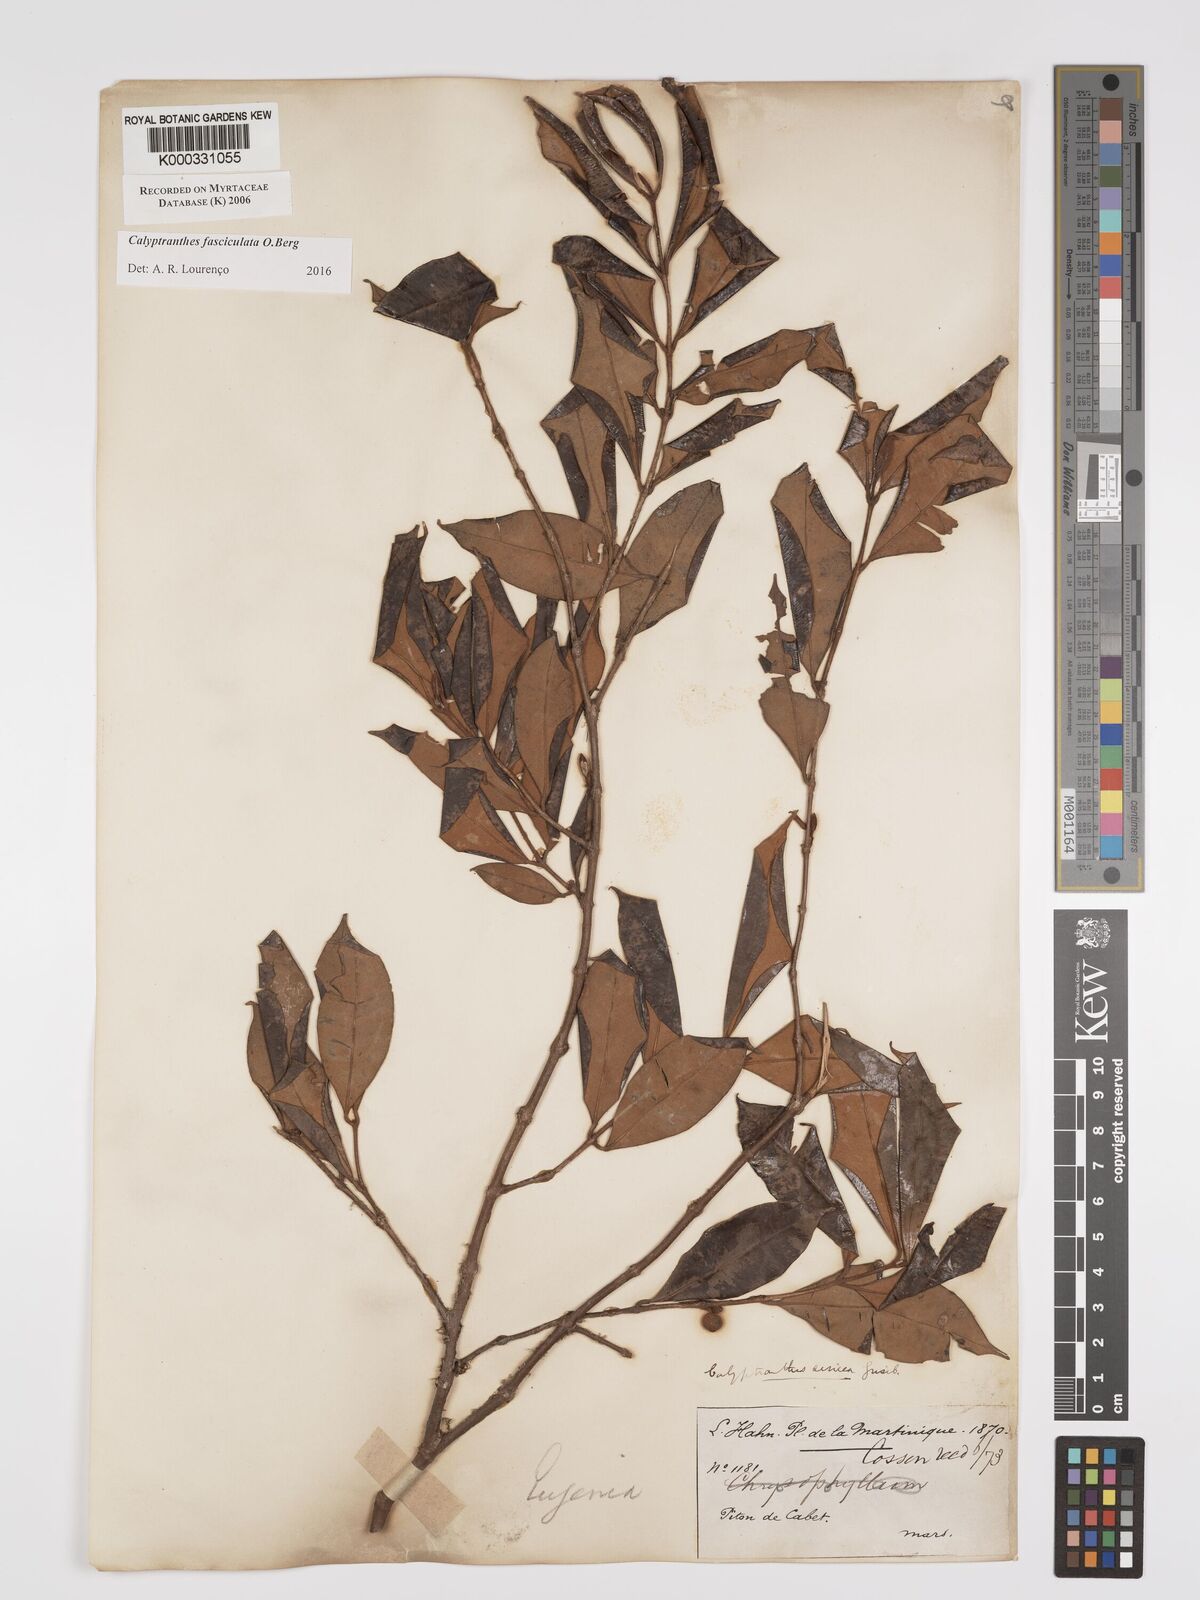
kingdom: Plantae
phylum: Tracheophyta
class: Magnoliopsida
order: Myrtales
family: Myrtaceae
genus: Myrcia
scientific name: Myrcia fasciculata
